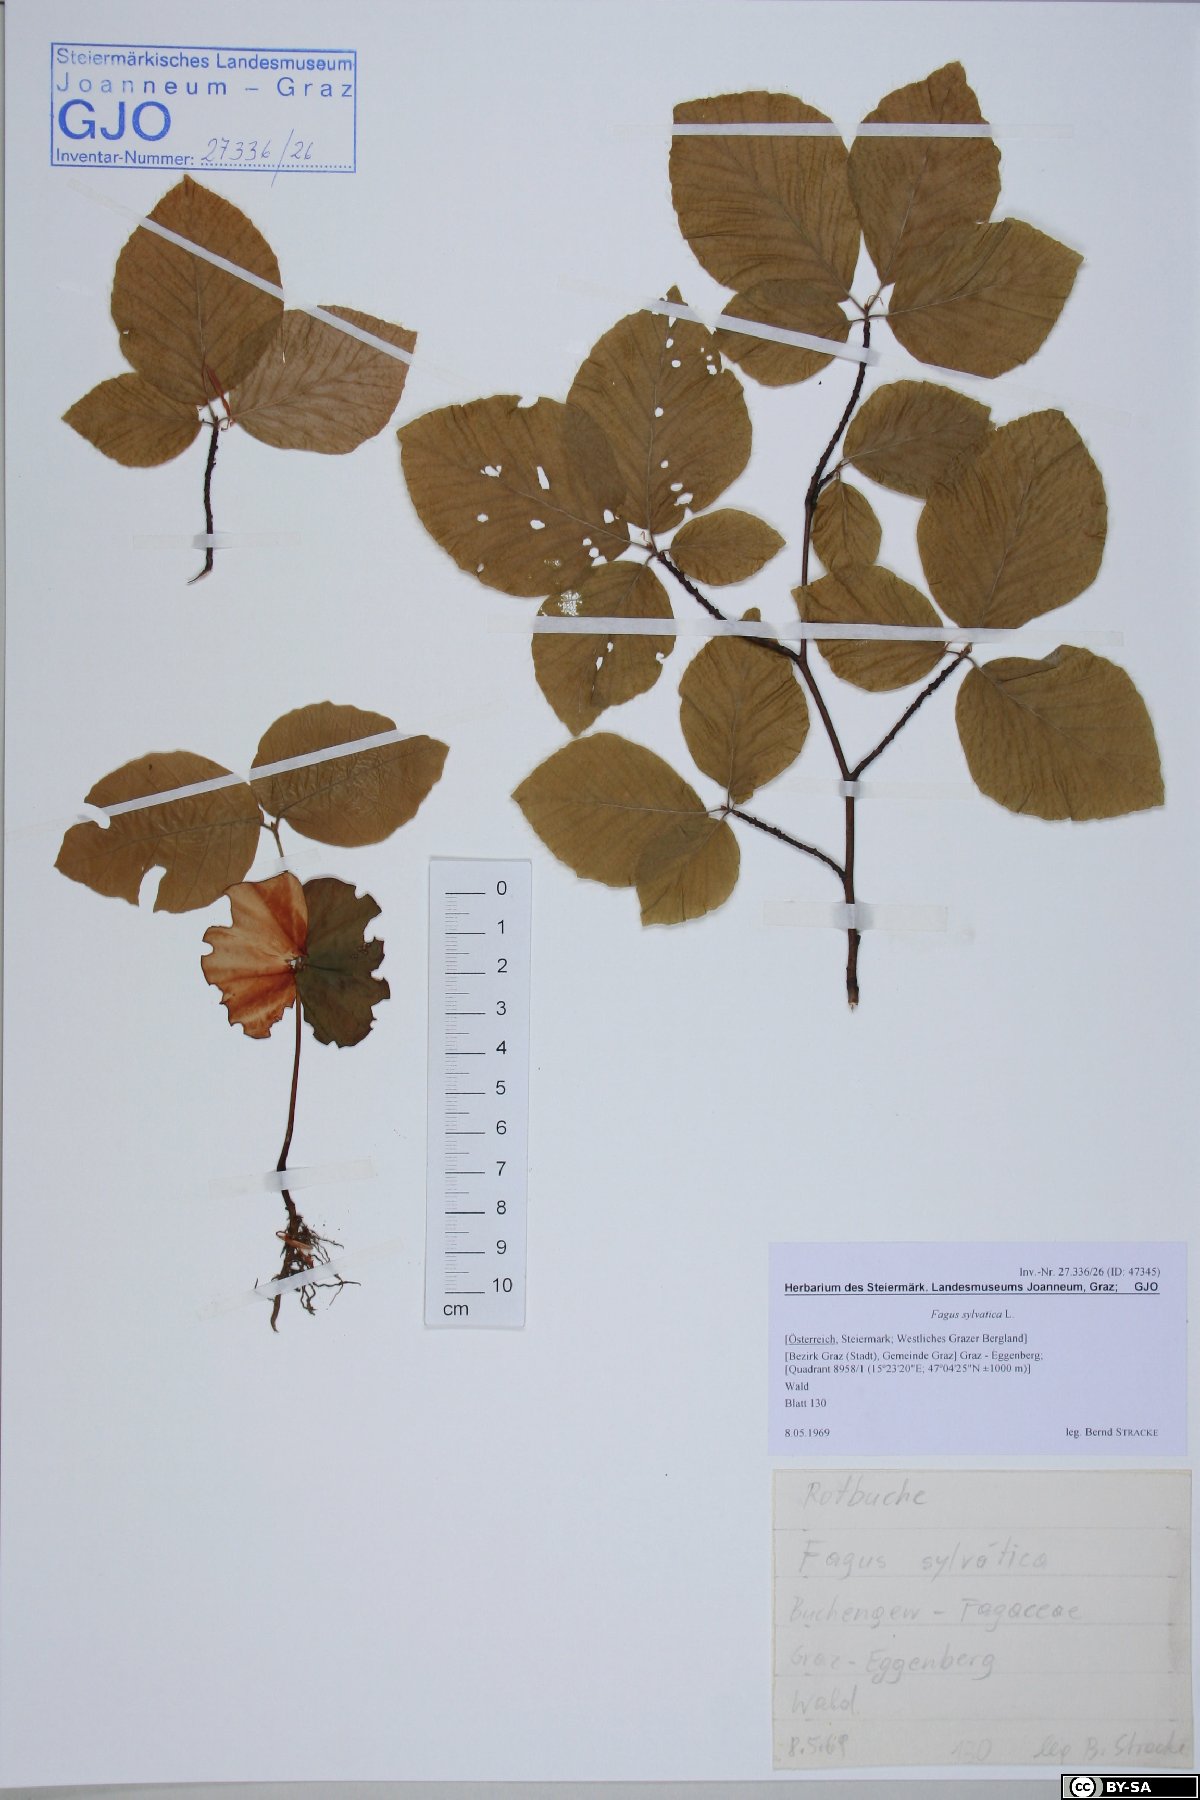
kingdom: Plantae
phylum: Tracheophyta
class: Magnoliopsida
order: Fagales
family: Fagaceae
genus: Fagus
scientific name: Fagus sylvatica
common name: Beech
